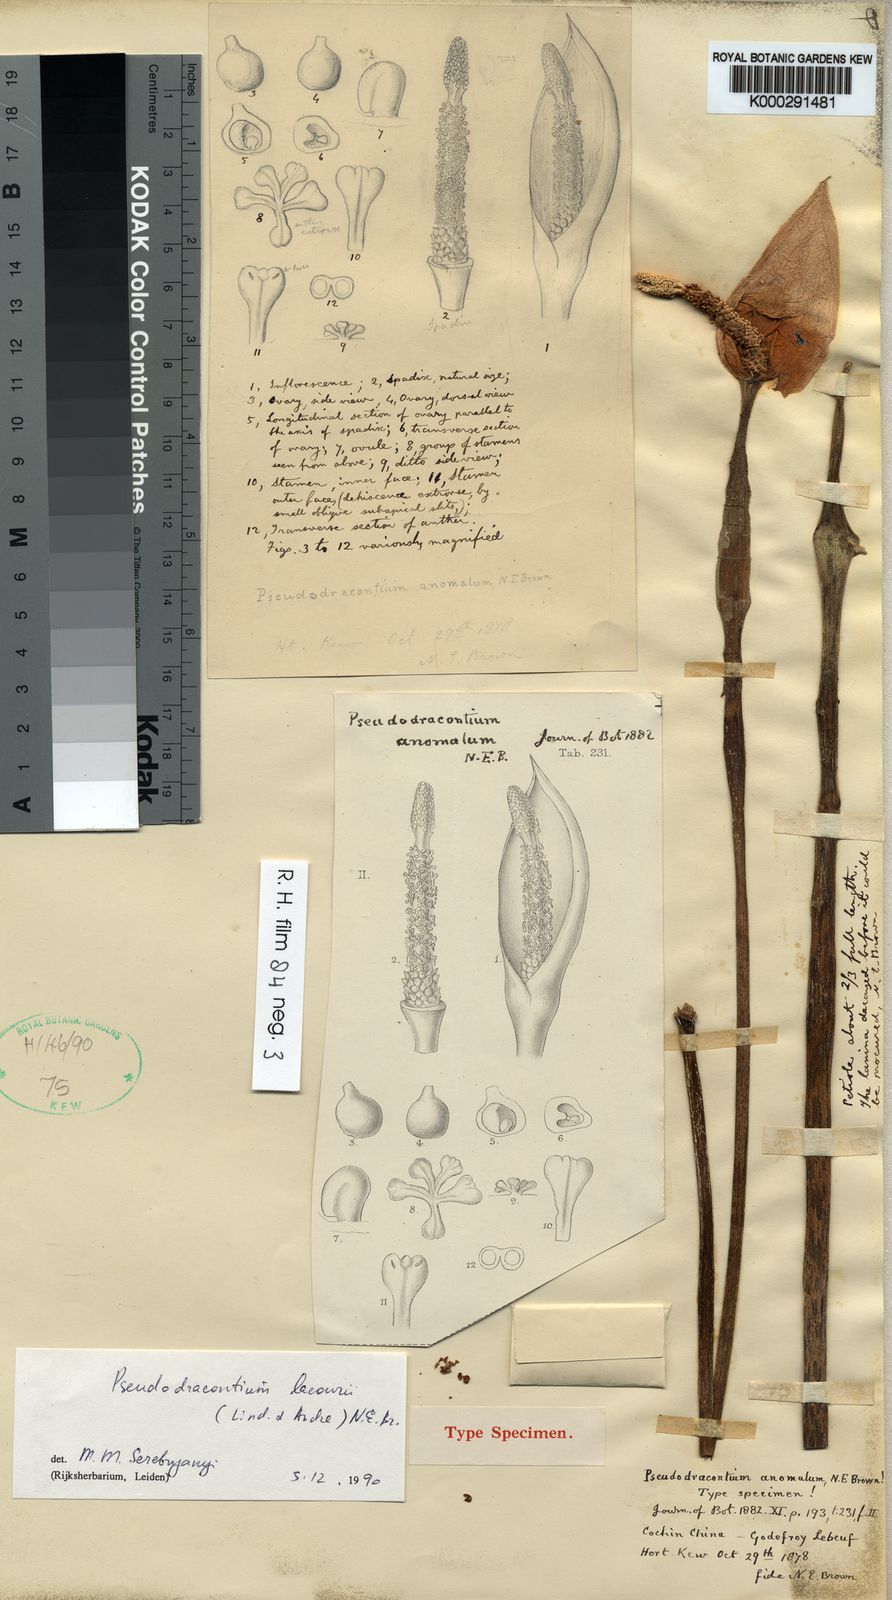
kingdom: Plantae
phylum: Tracheophyta
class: Liliopsida
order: Alismatales
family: Araceae
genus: Amorphophallus
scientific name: Amorphophallus
